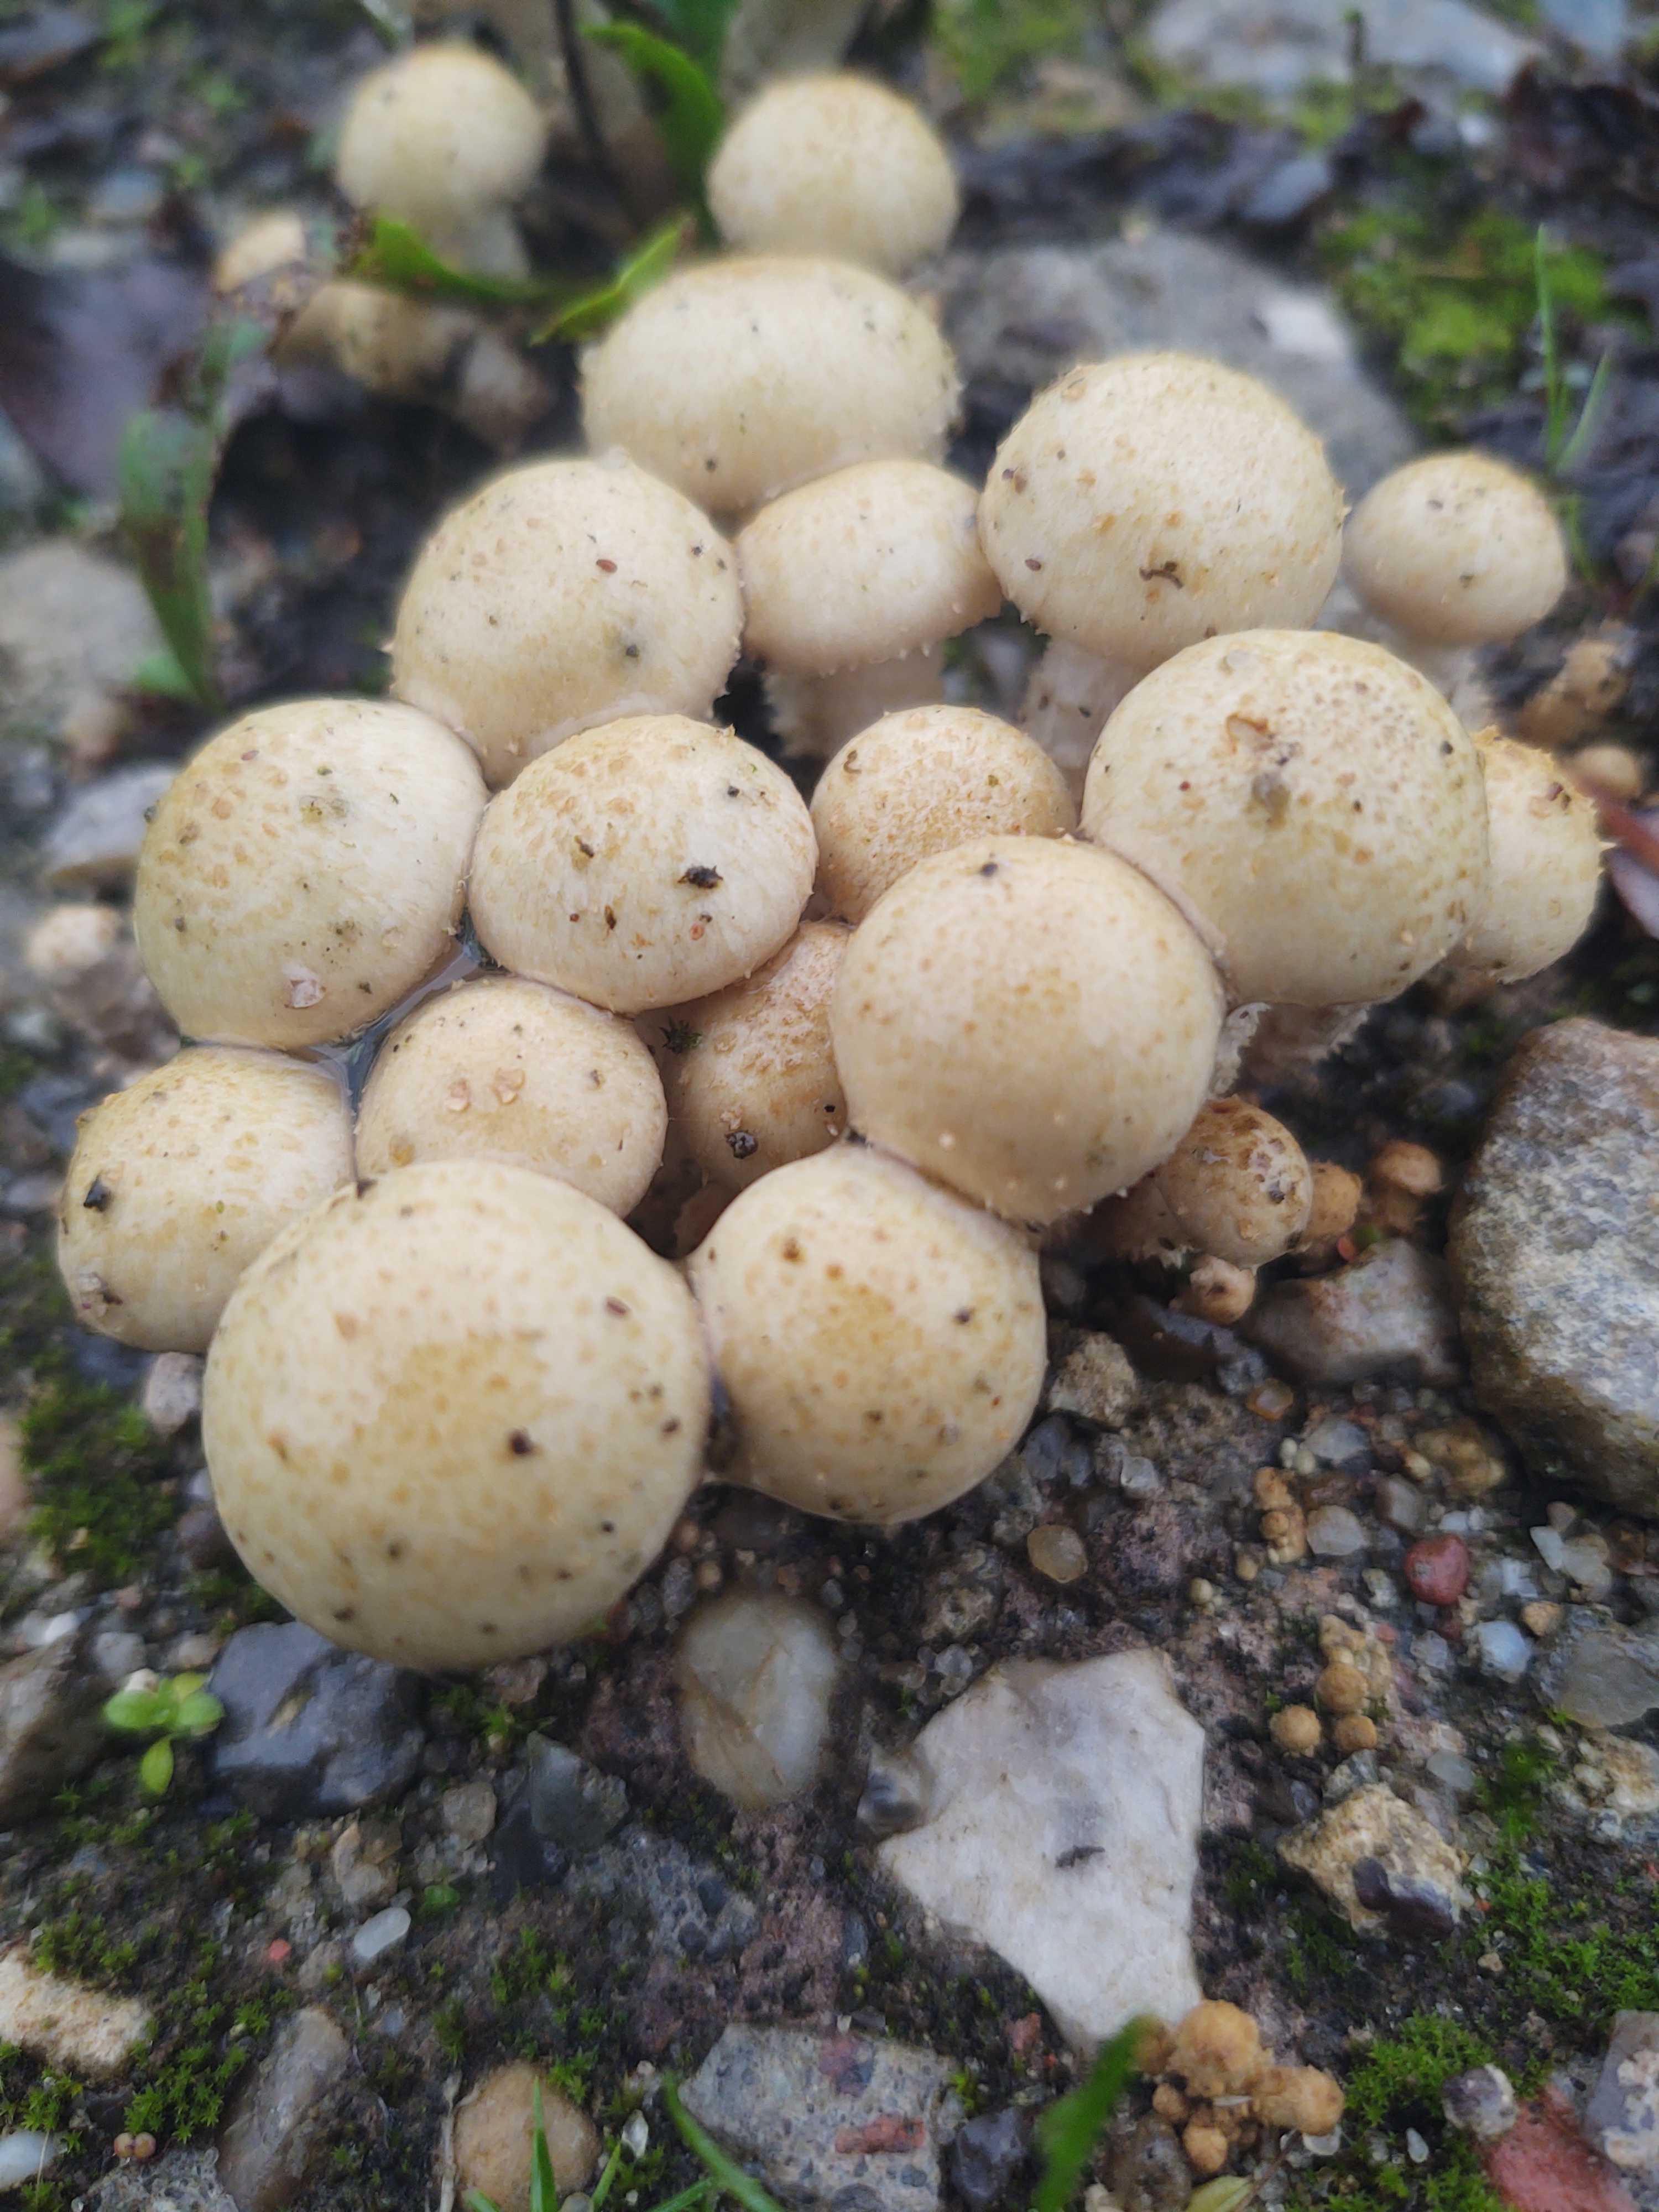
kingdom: Fungi
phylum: Basidiomycota
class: Agaricomycetes
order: Agaricales
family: Strophariaceae
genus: Pholiota
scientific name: Pholiota gummosa
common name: grøngul skælhat
